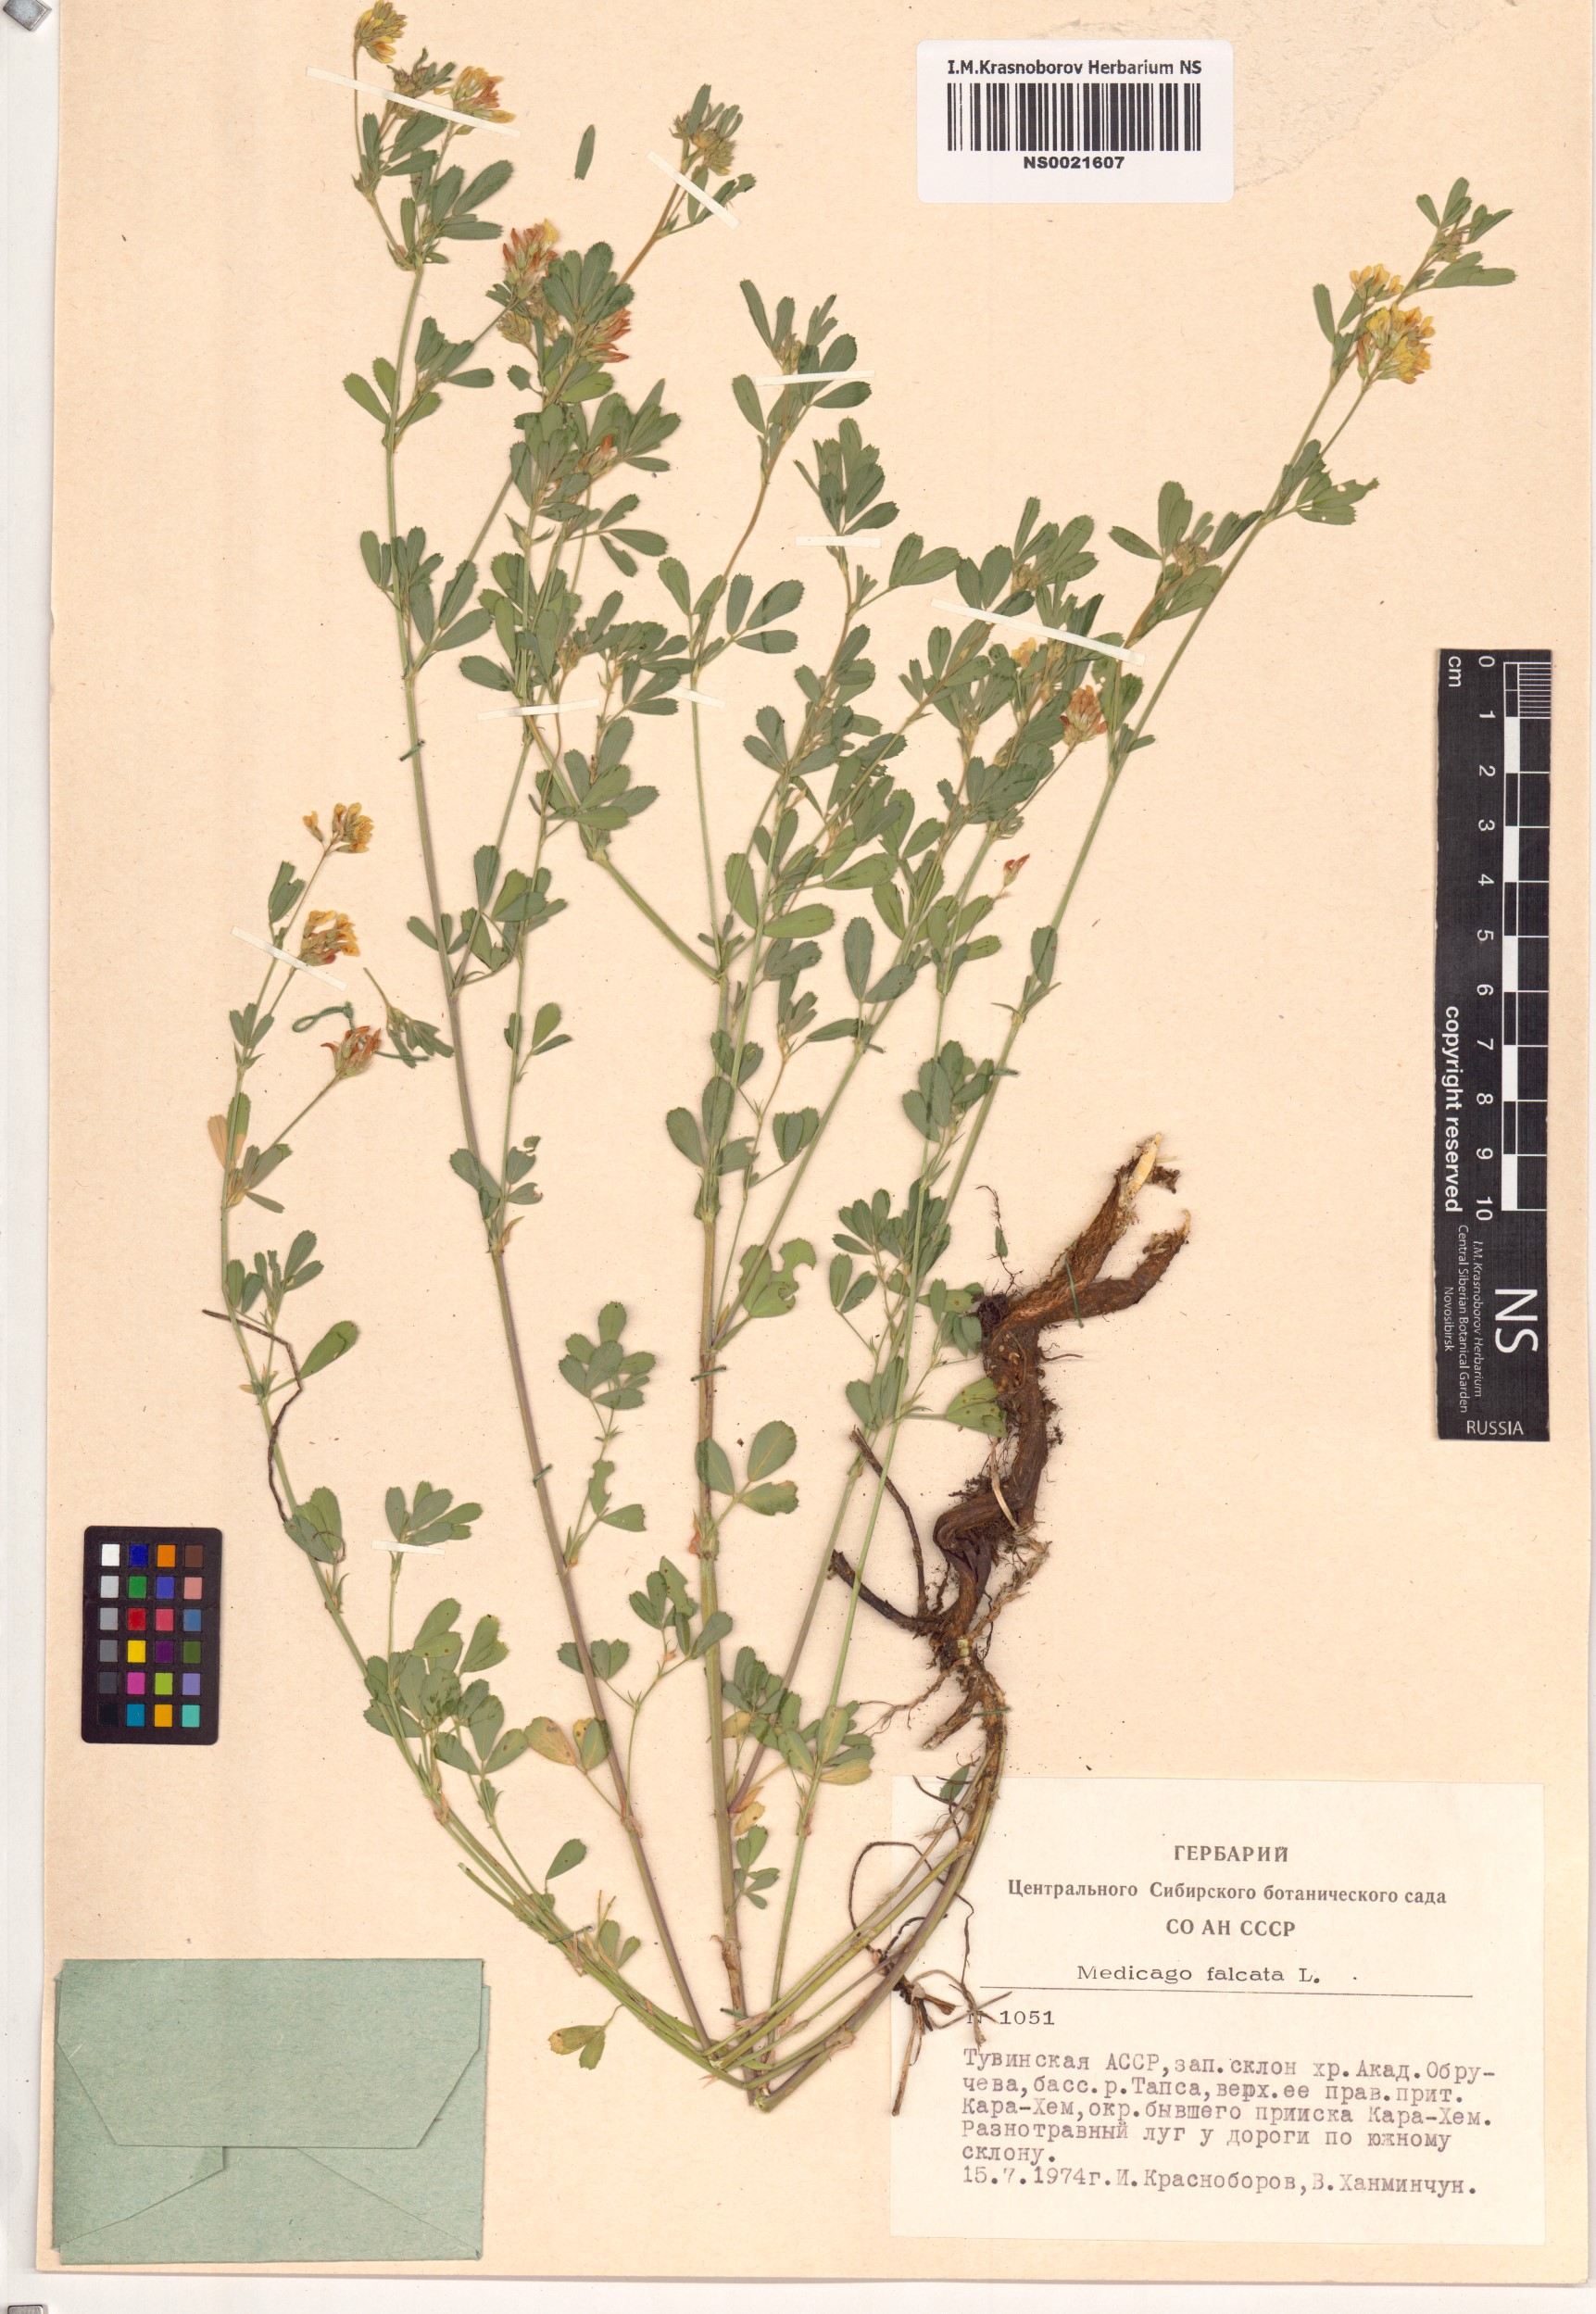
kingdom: Plantae
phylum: Tracheophyta
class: Magnoliopsida
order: Fabales
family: Fabaceae
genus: Medicago
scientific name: Medicago falcata
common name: Sickle medick
